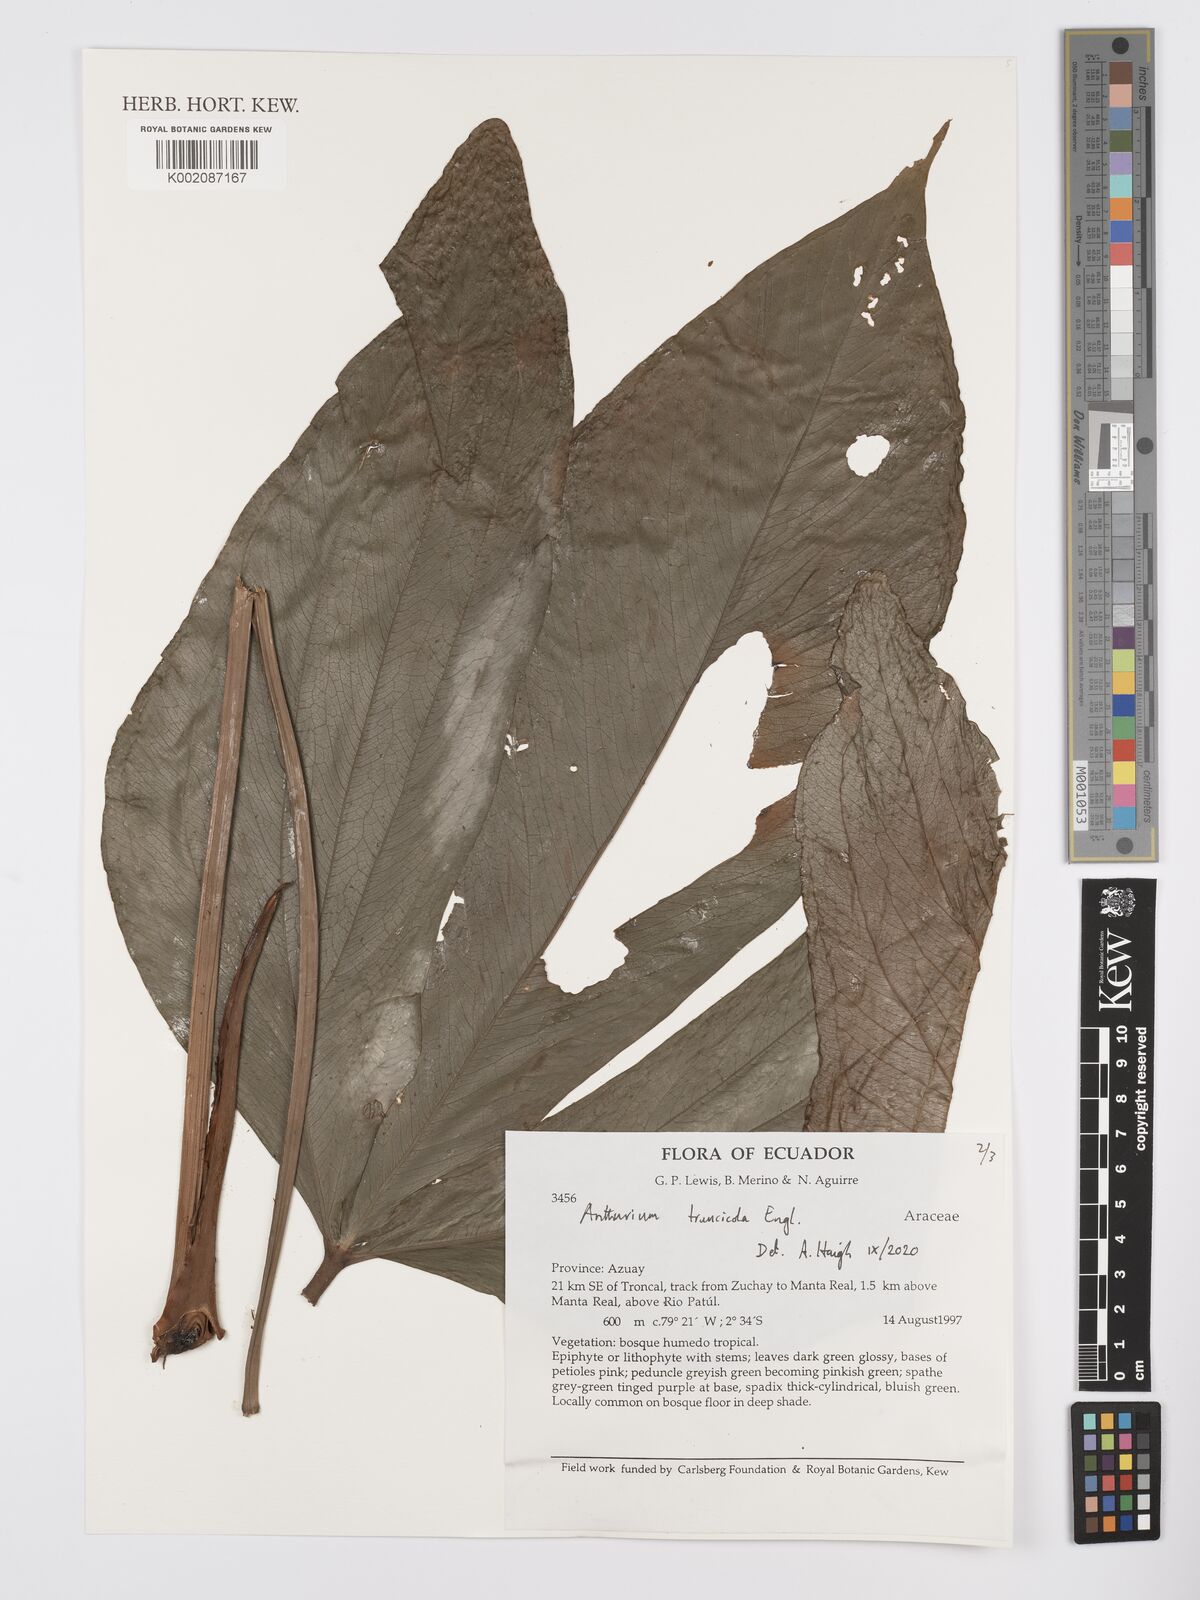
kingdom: Plantae
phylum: Tracheophyta
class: Liliopsida
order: Alismatales
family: Araceae
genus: Anthurium
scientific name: Anthurium truncicola
